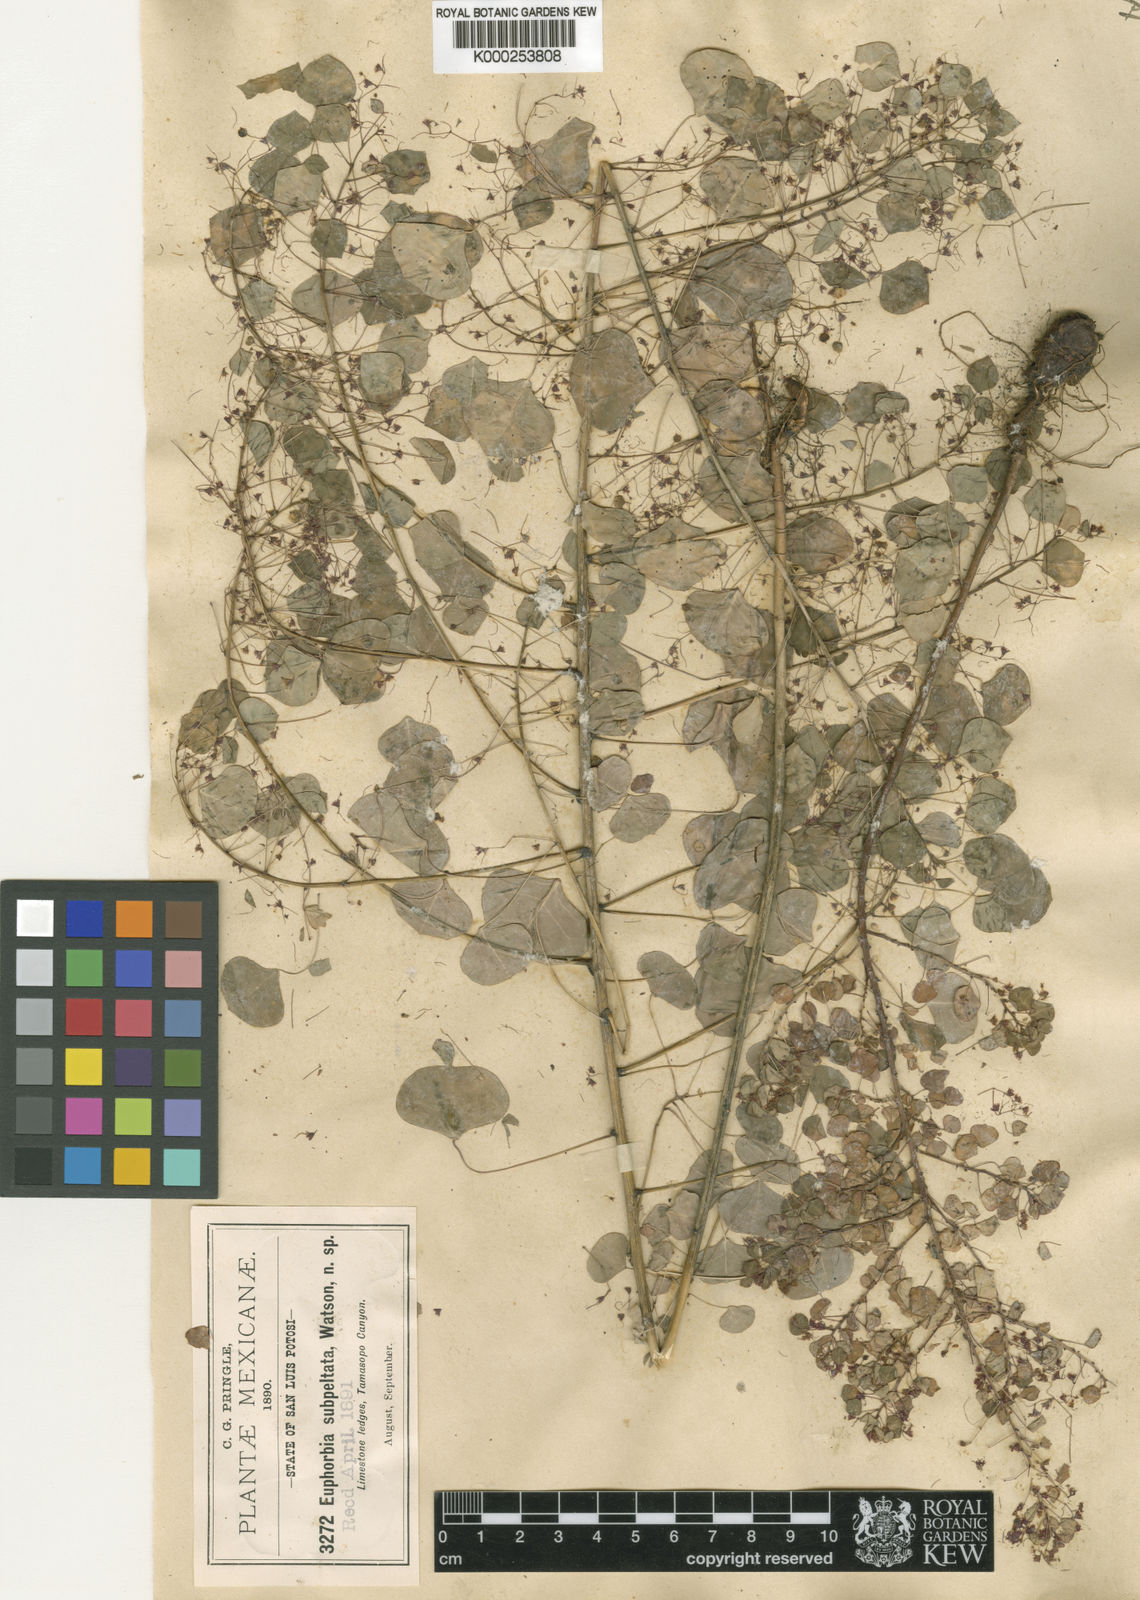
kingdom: Plantae
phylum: Tracheophyta
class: Magnoliopsida
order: Malpighiales
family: Euphorbiaceae
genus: Euphorbia
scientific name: Euphorbia subpeltata
